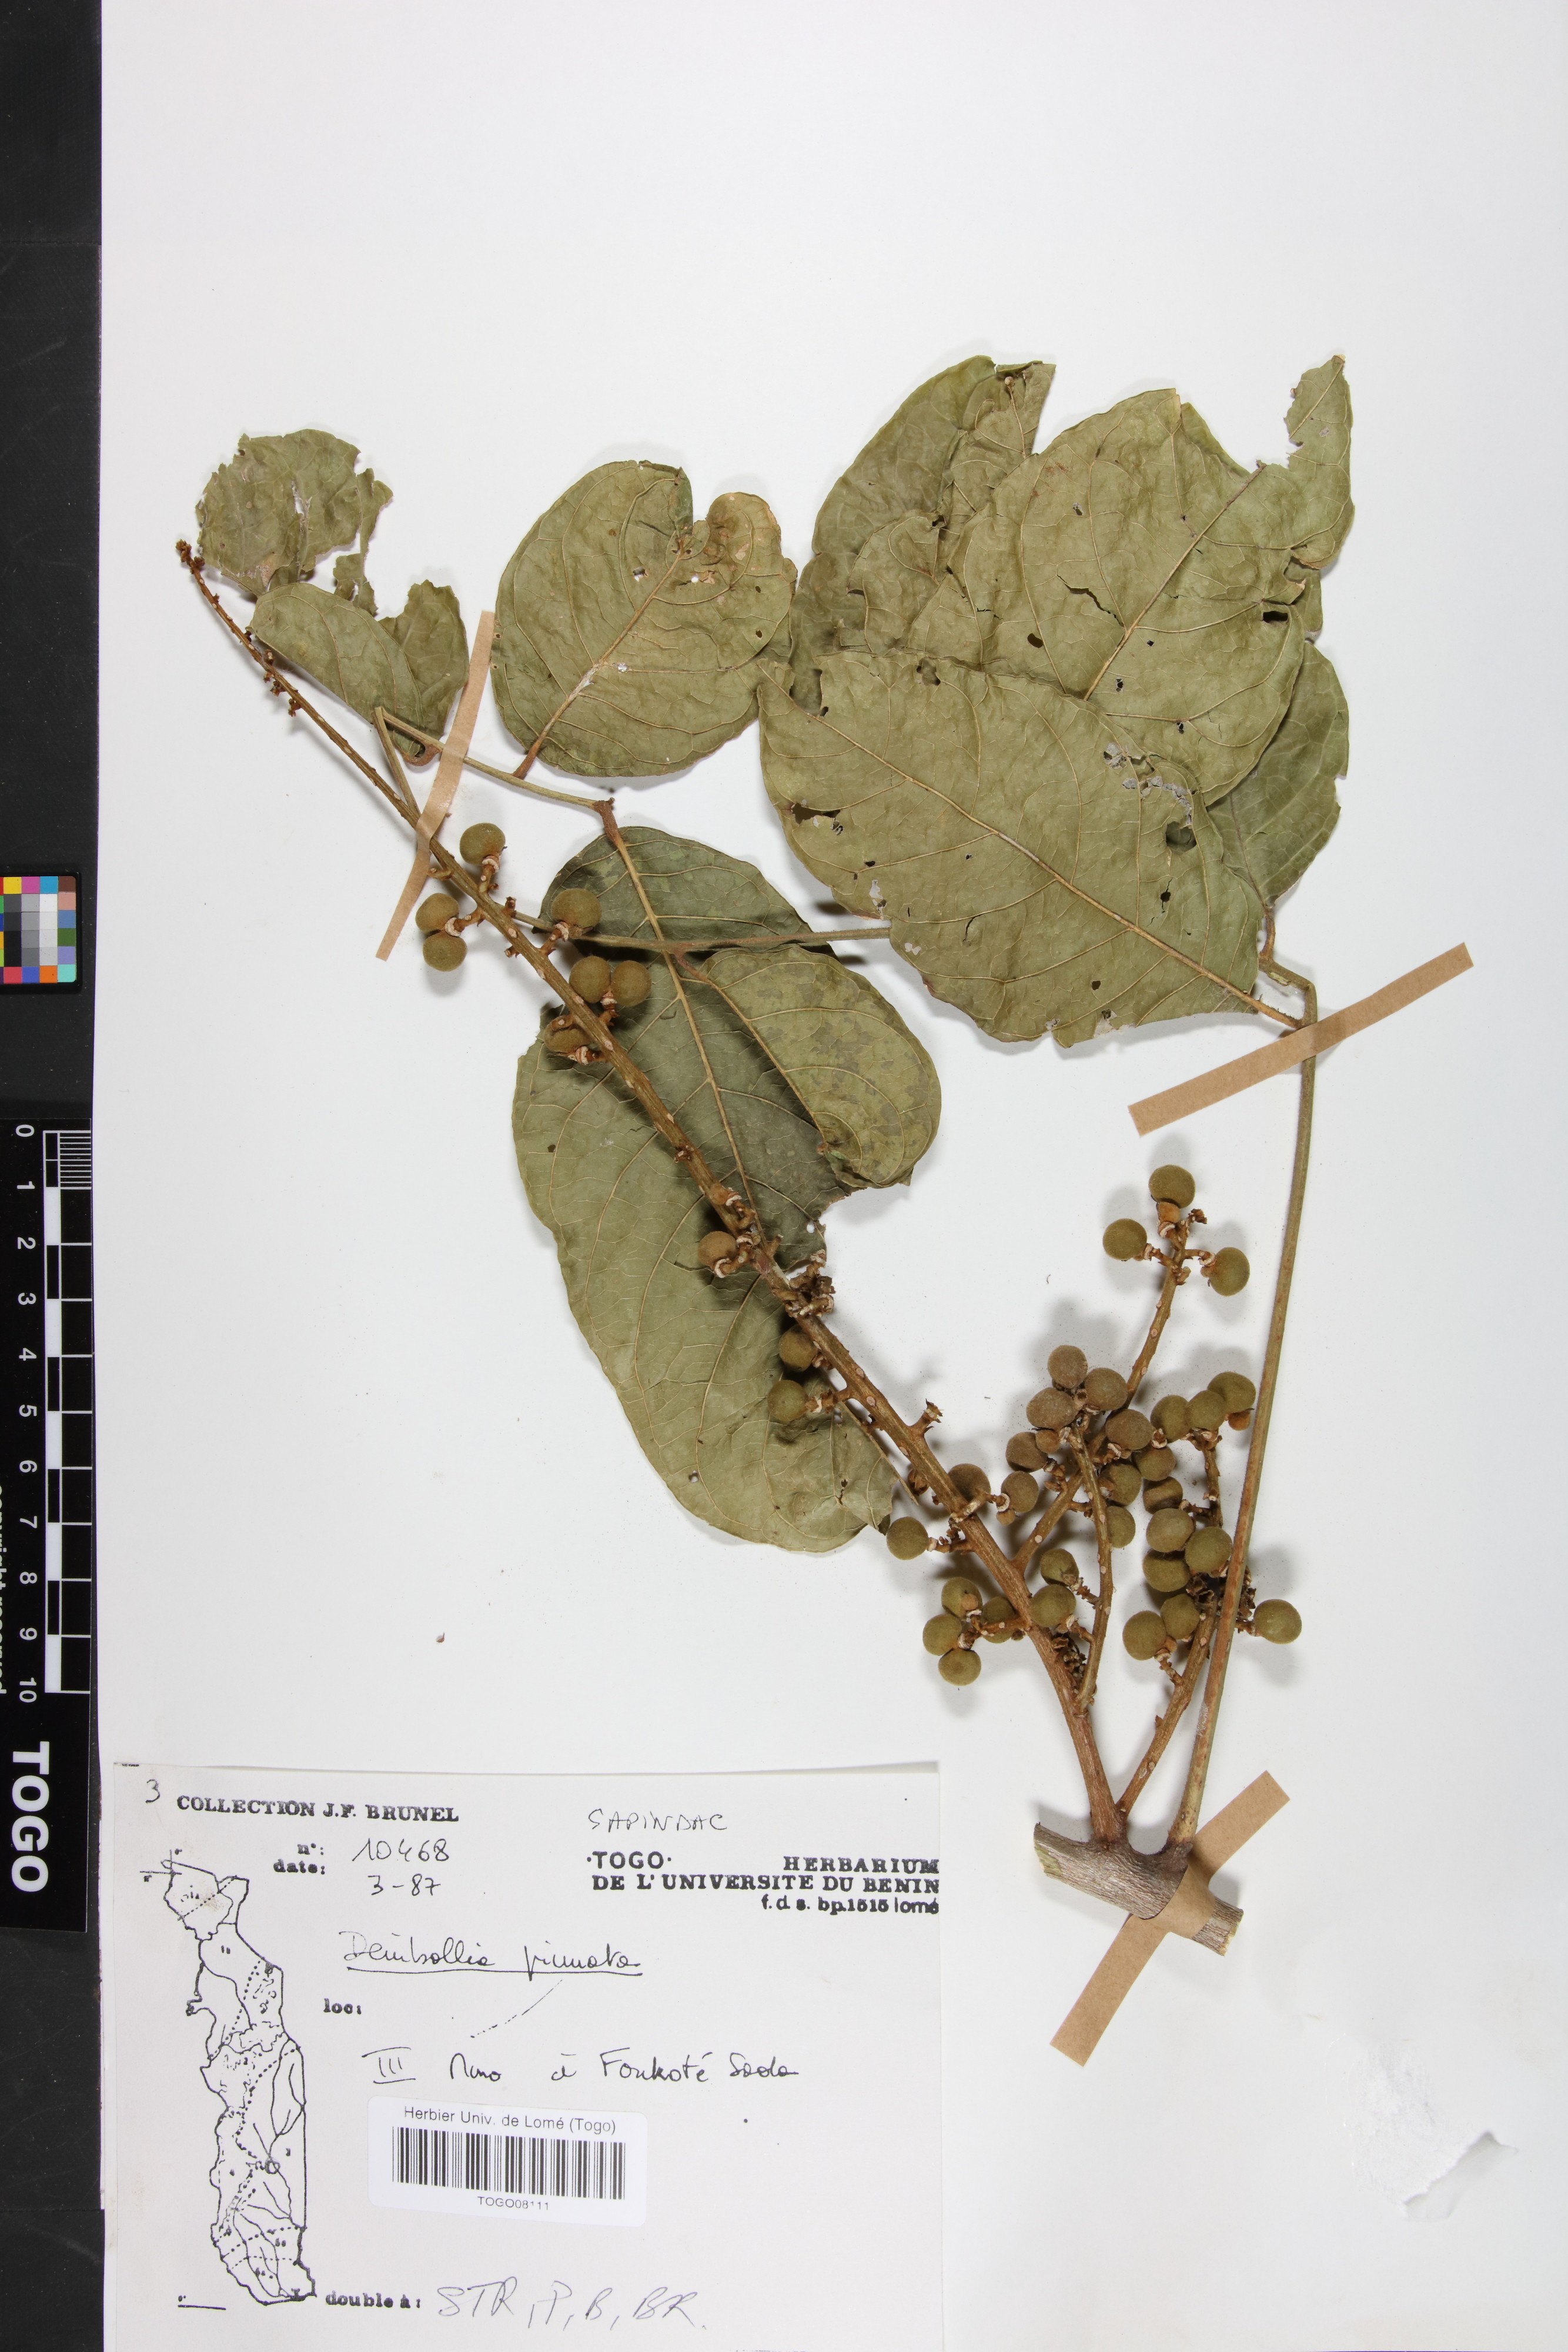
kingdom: Plantae
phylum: Tracheophyta
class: Magnoliopsida
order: Sapindales
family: Sapindaceae
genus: Deinbollia
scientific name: Deinbollia pinnata
